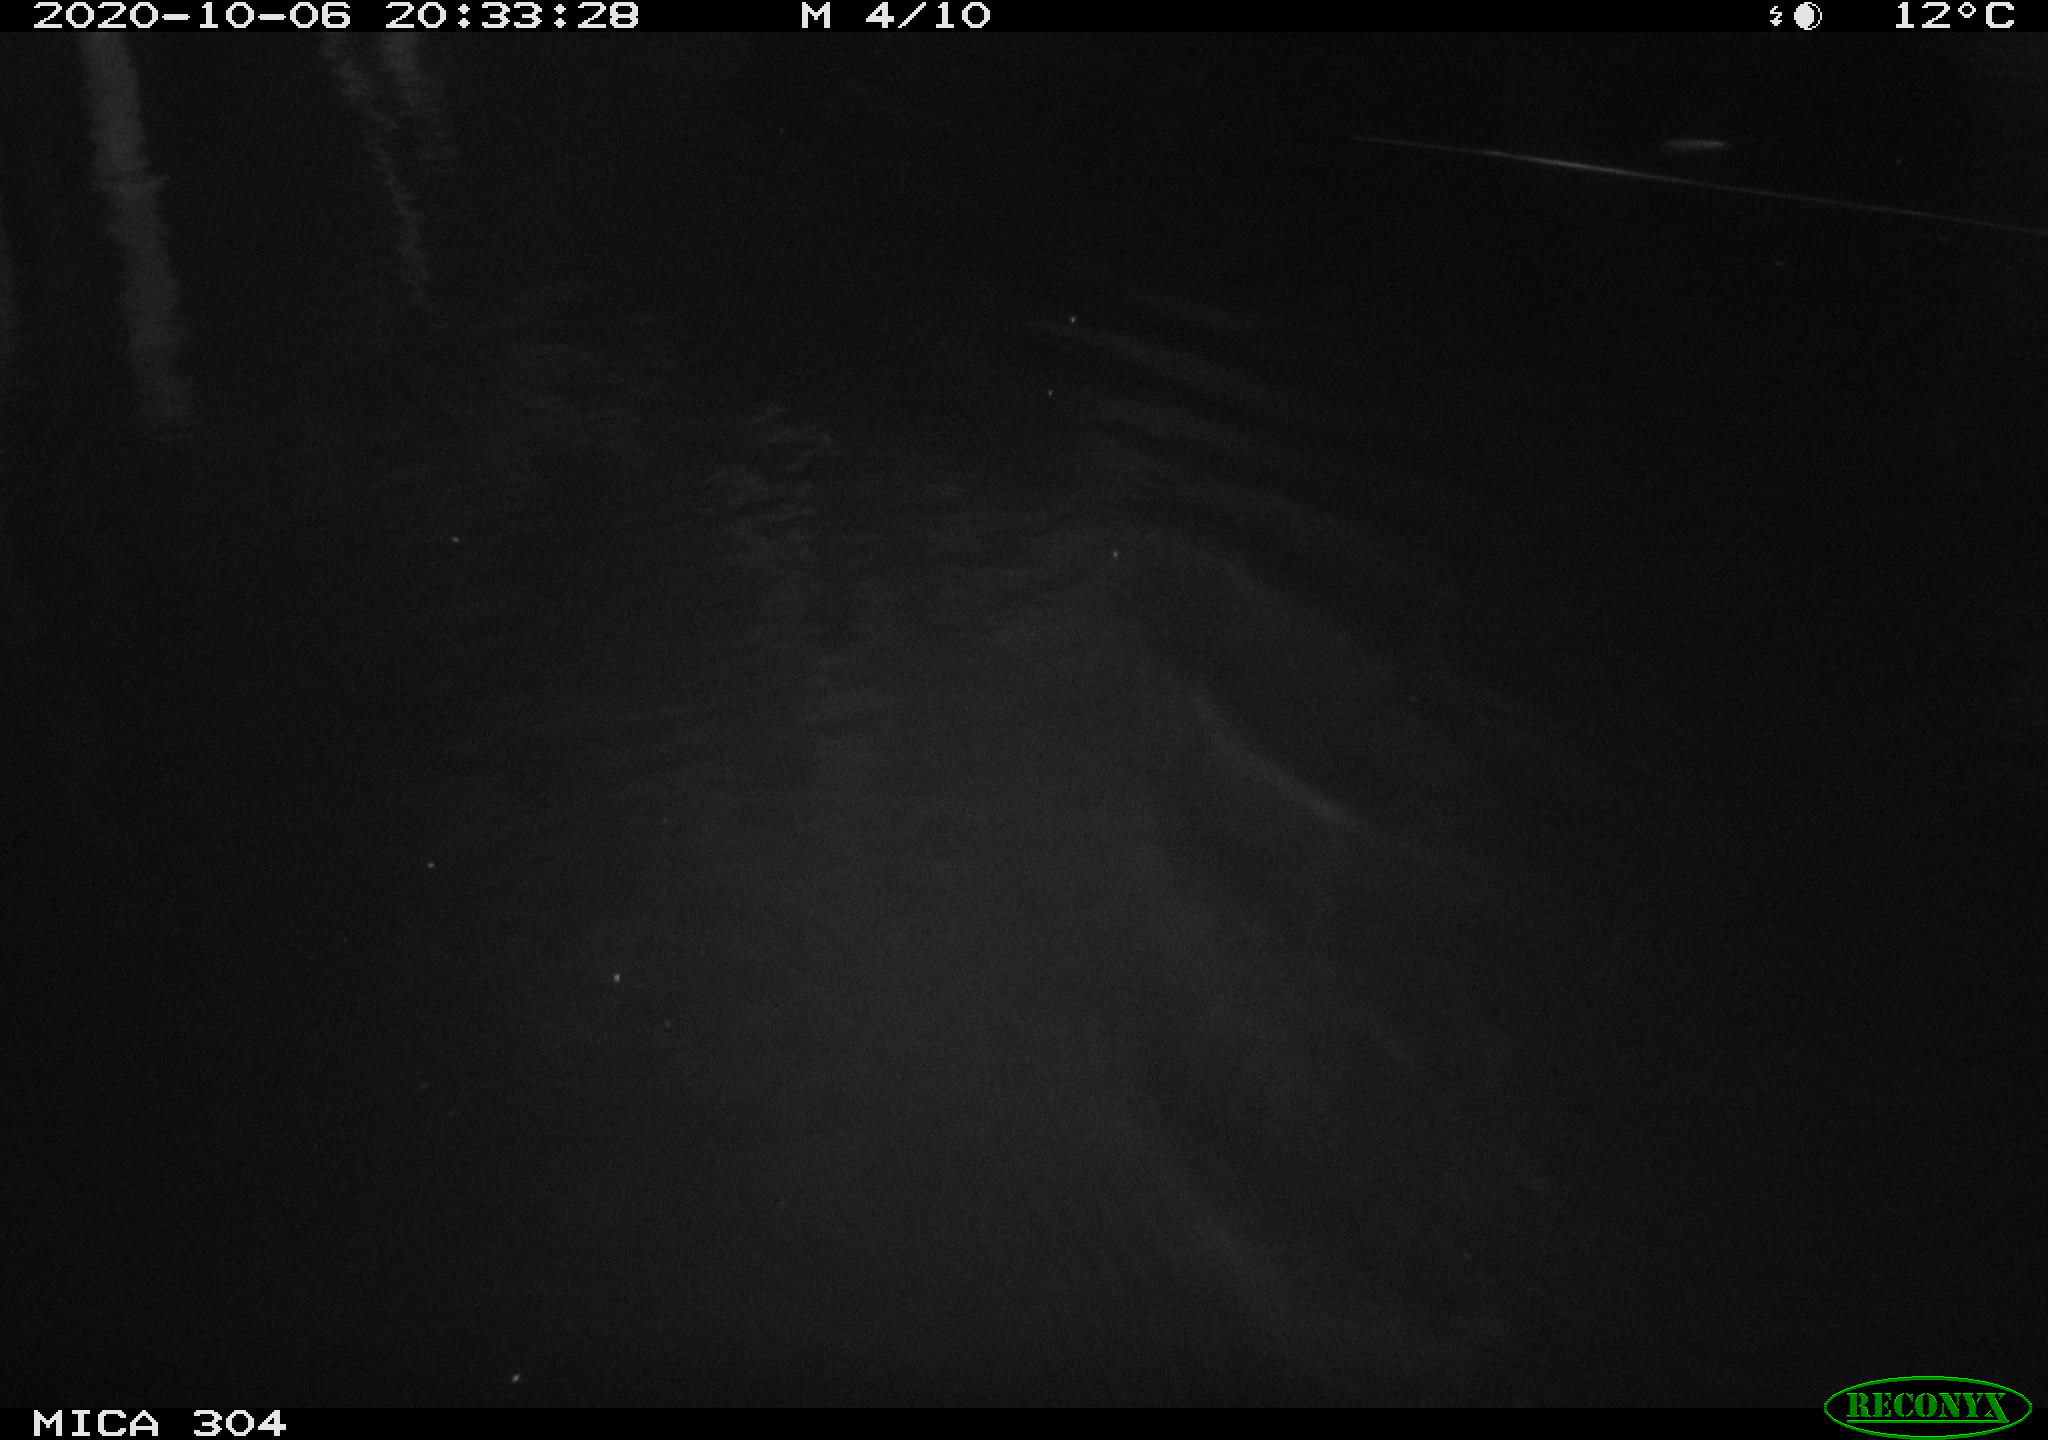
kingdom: Animalia
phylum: Chordata
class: Mammalia
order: Rodentia
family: Muridae
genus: Rattus
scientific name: Rattus norvegicus
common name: Brown rat
